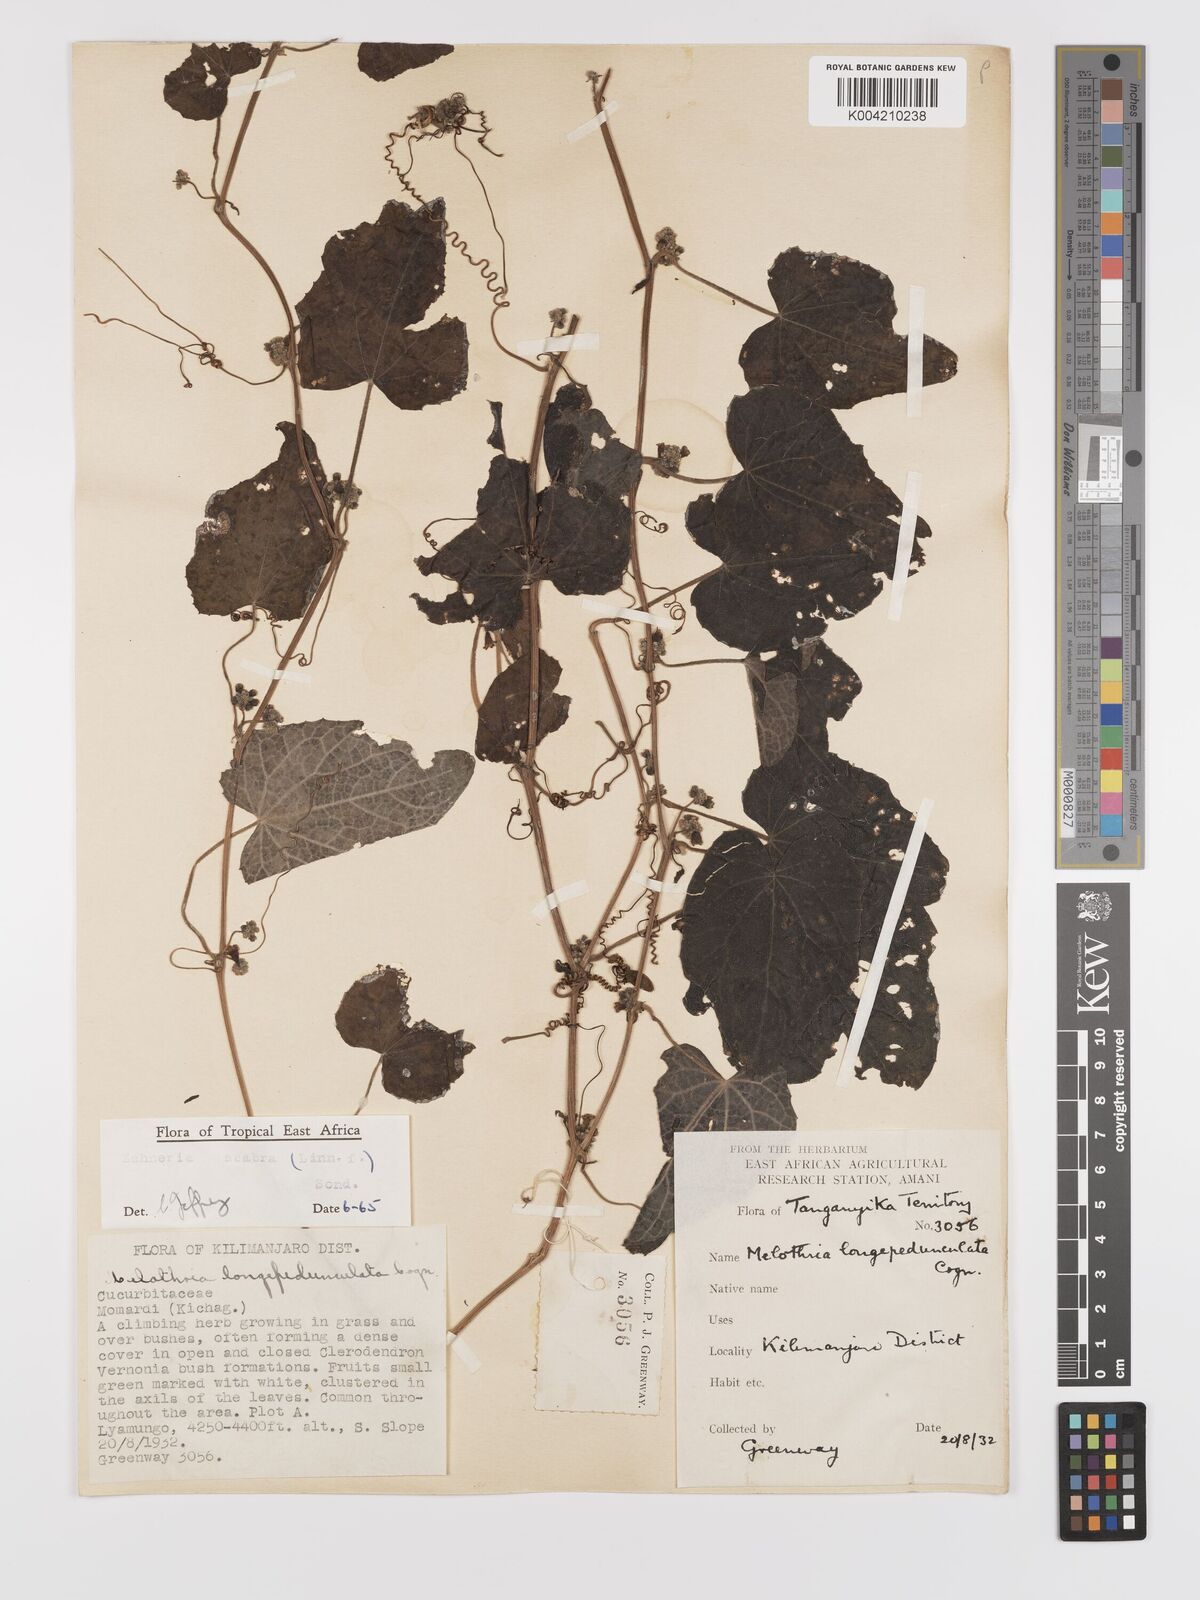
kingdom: Plantae
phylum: Tracheophyta
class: Magnoliopsida
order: Cucurbitales
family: Cucurbitaceae
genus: Zehneria
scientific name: Zehneria scabra
